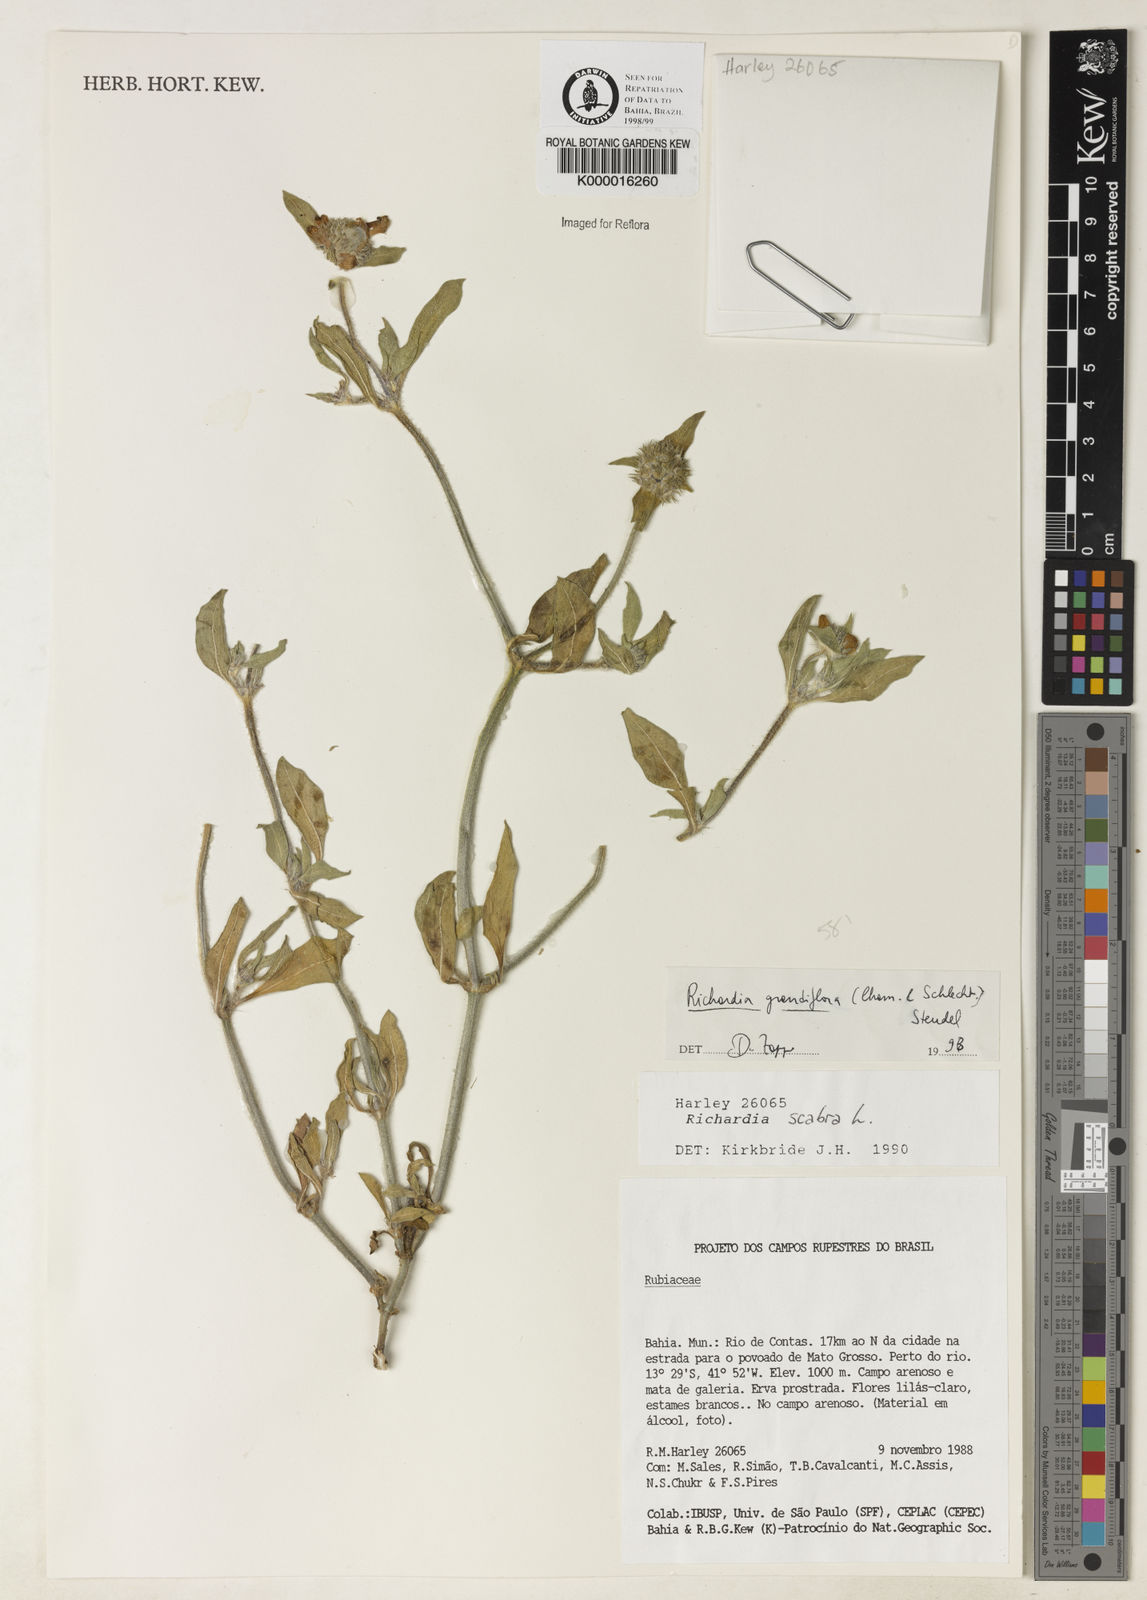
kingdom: Plantae
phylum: Tracheophyta
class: Magnoliopsida
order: Gentianales
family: Rubiaceae
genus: Richardia
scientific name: Richardia grandiflora
